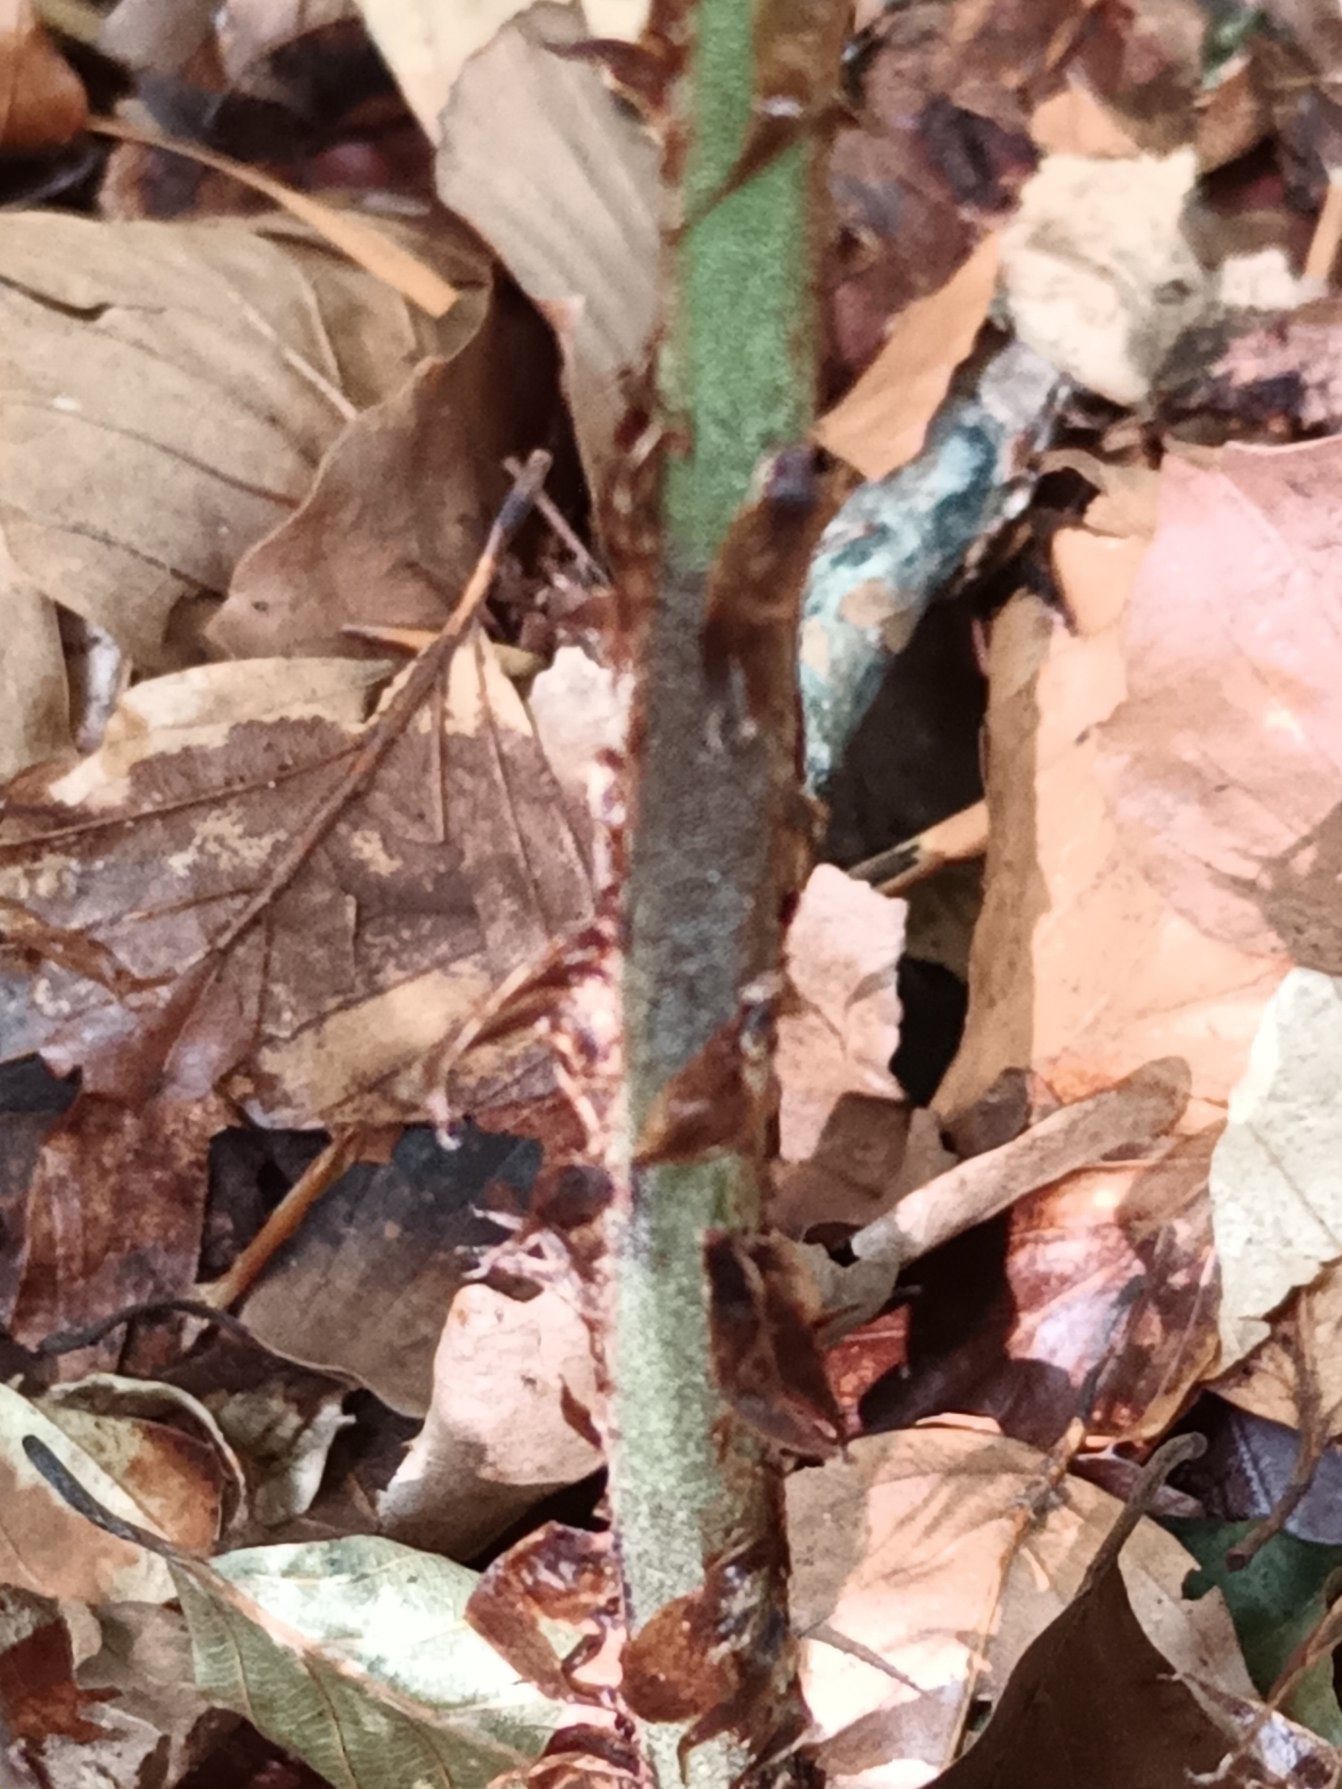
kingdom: Plantae
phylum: Tracheophyta
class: Polypodiopsida
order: Polypodiales
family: Dryopteridaceae
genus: Dryopteris
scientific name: Dryopteris dilatata
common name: Bredbladet mangeløv
